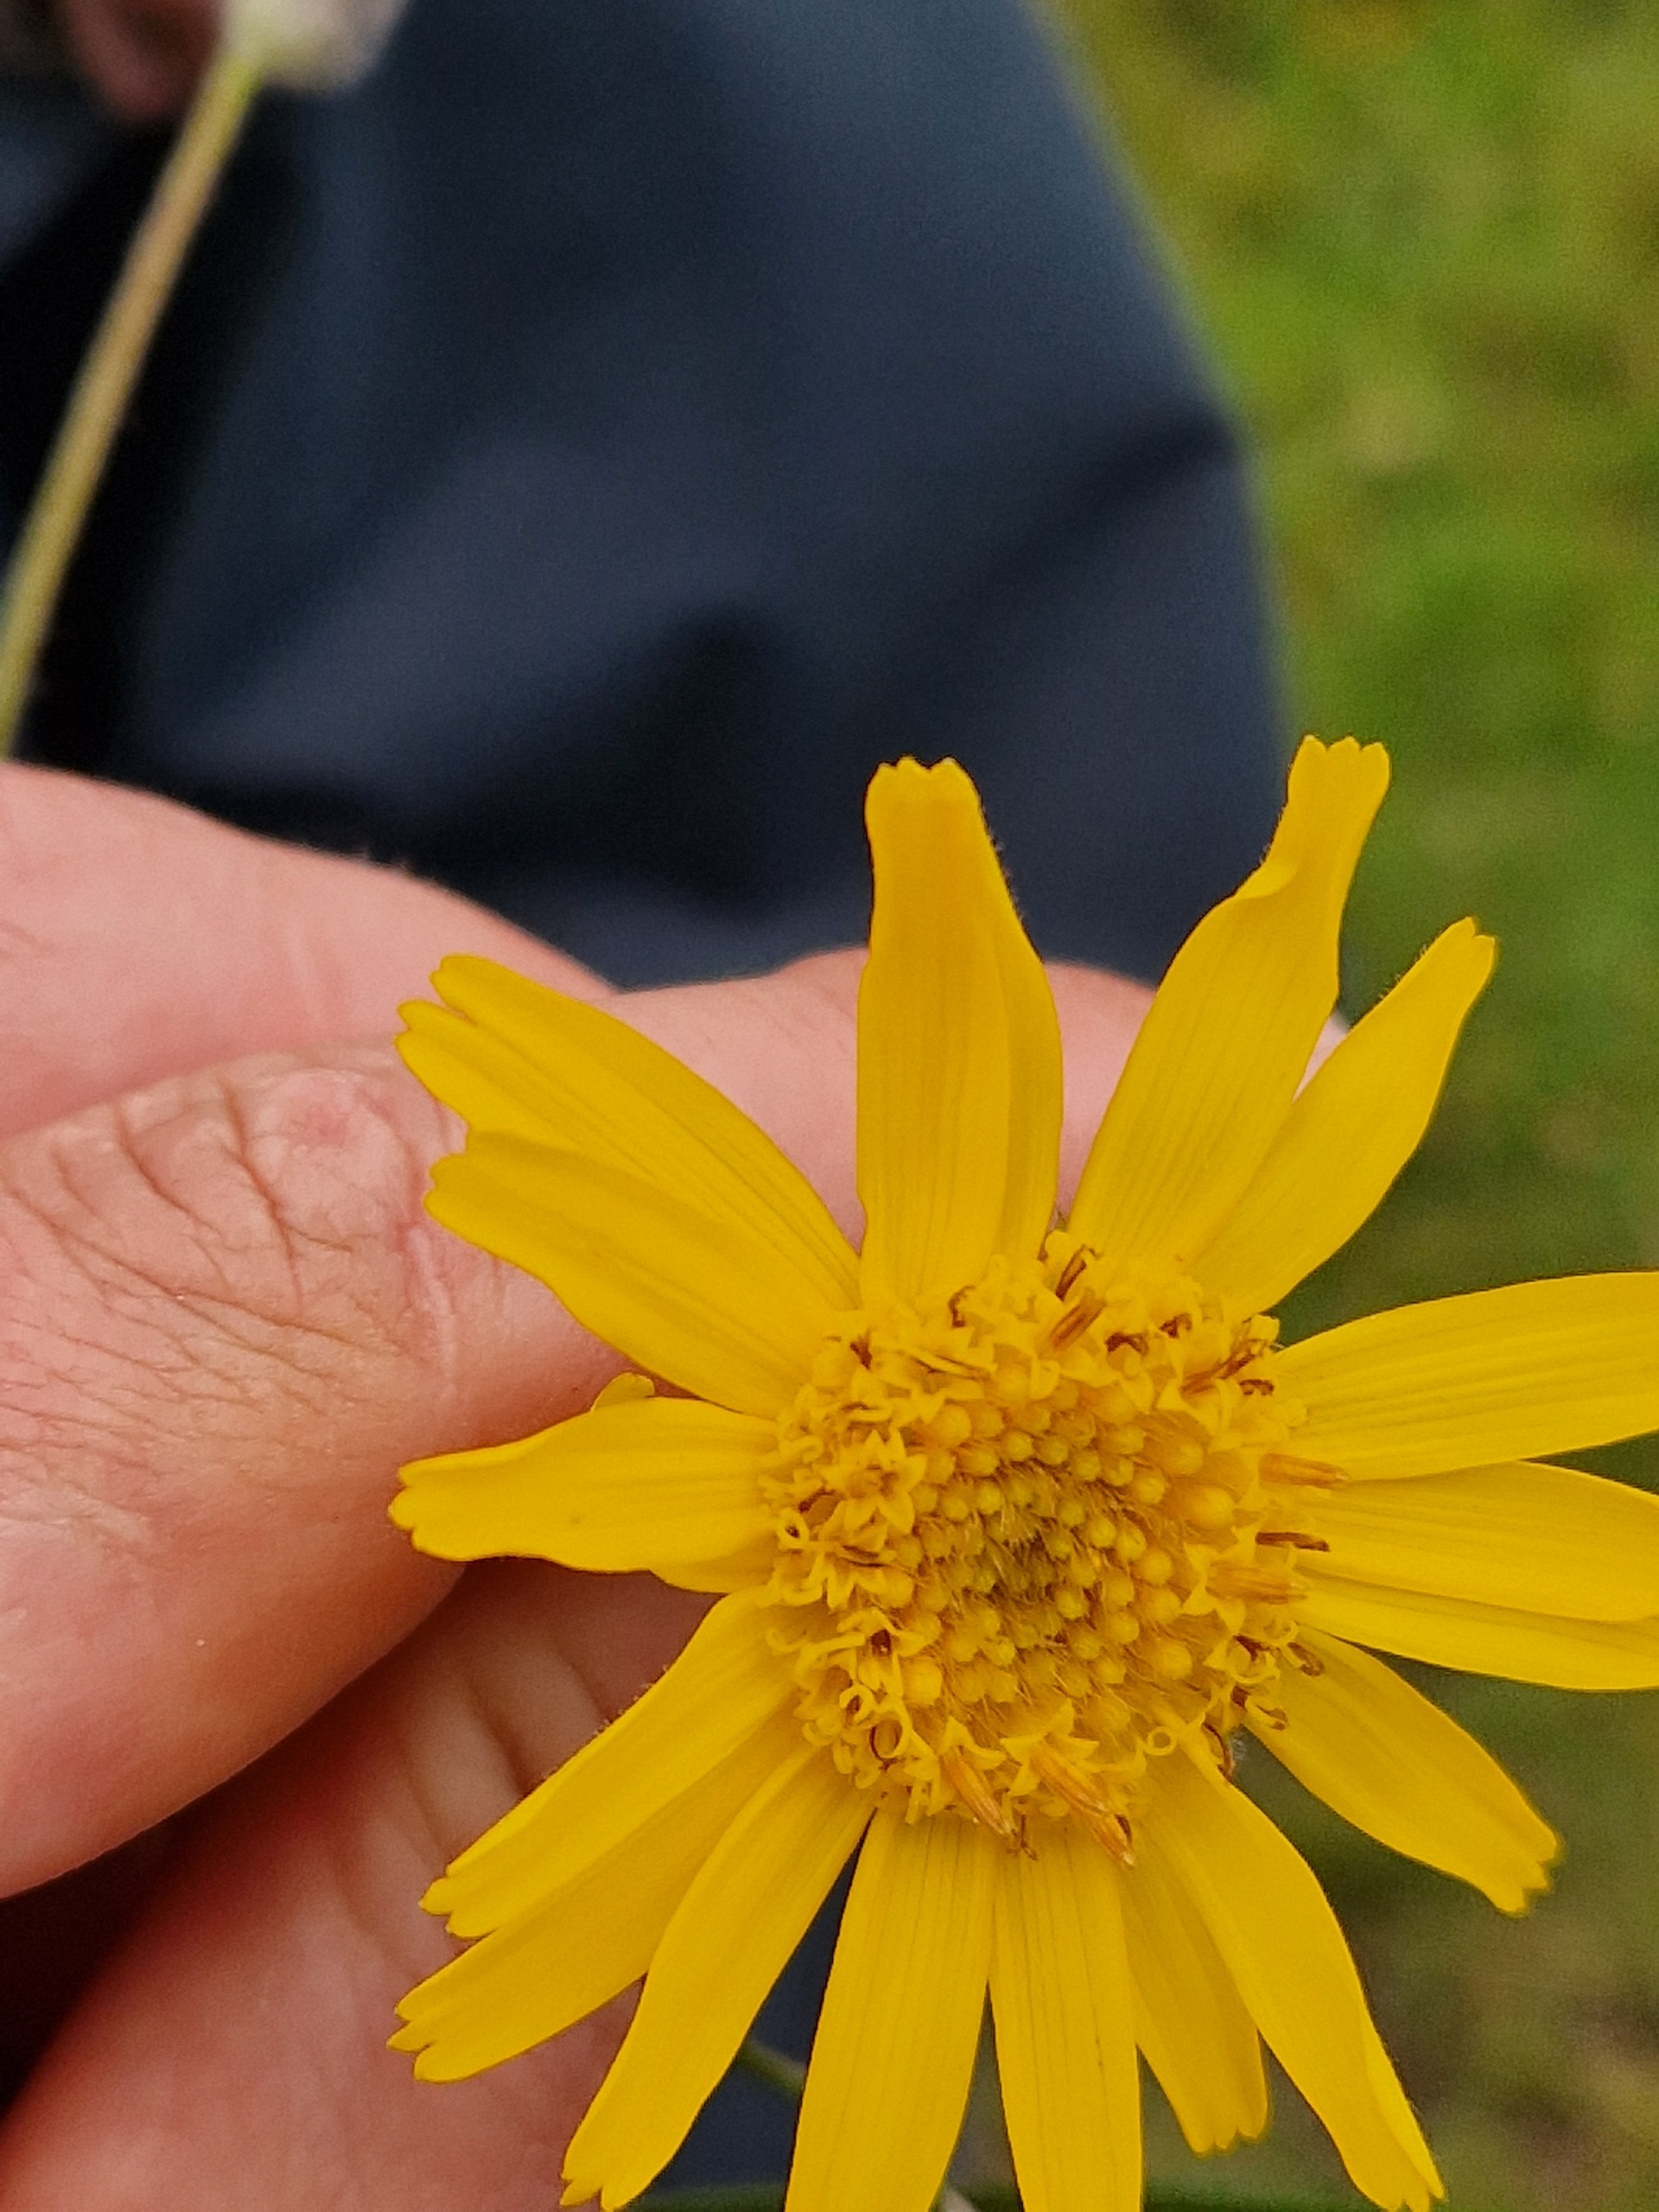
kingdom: Plantae
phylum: Tracheophyta
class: Magnoliopsida
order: Asterales
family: Asteraceae
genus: Arnica
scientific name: Arnica montana
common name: Guldblomme
